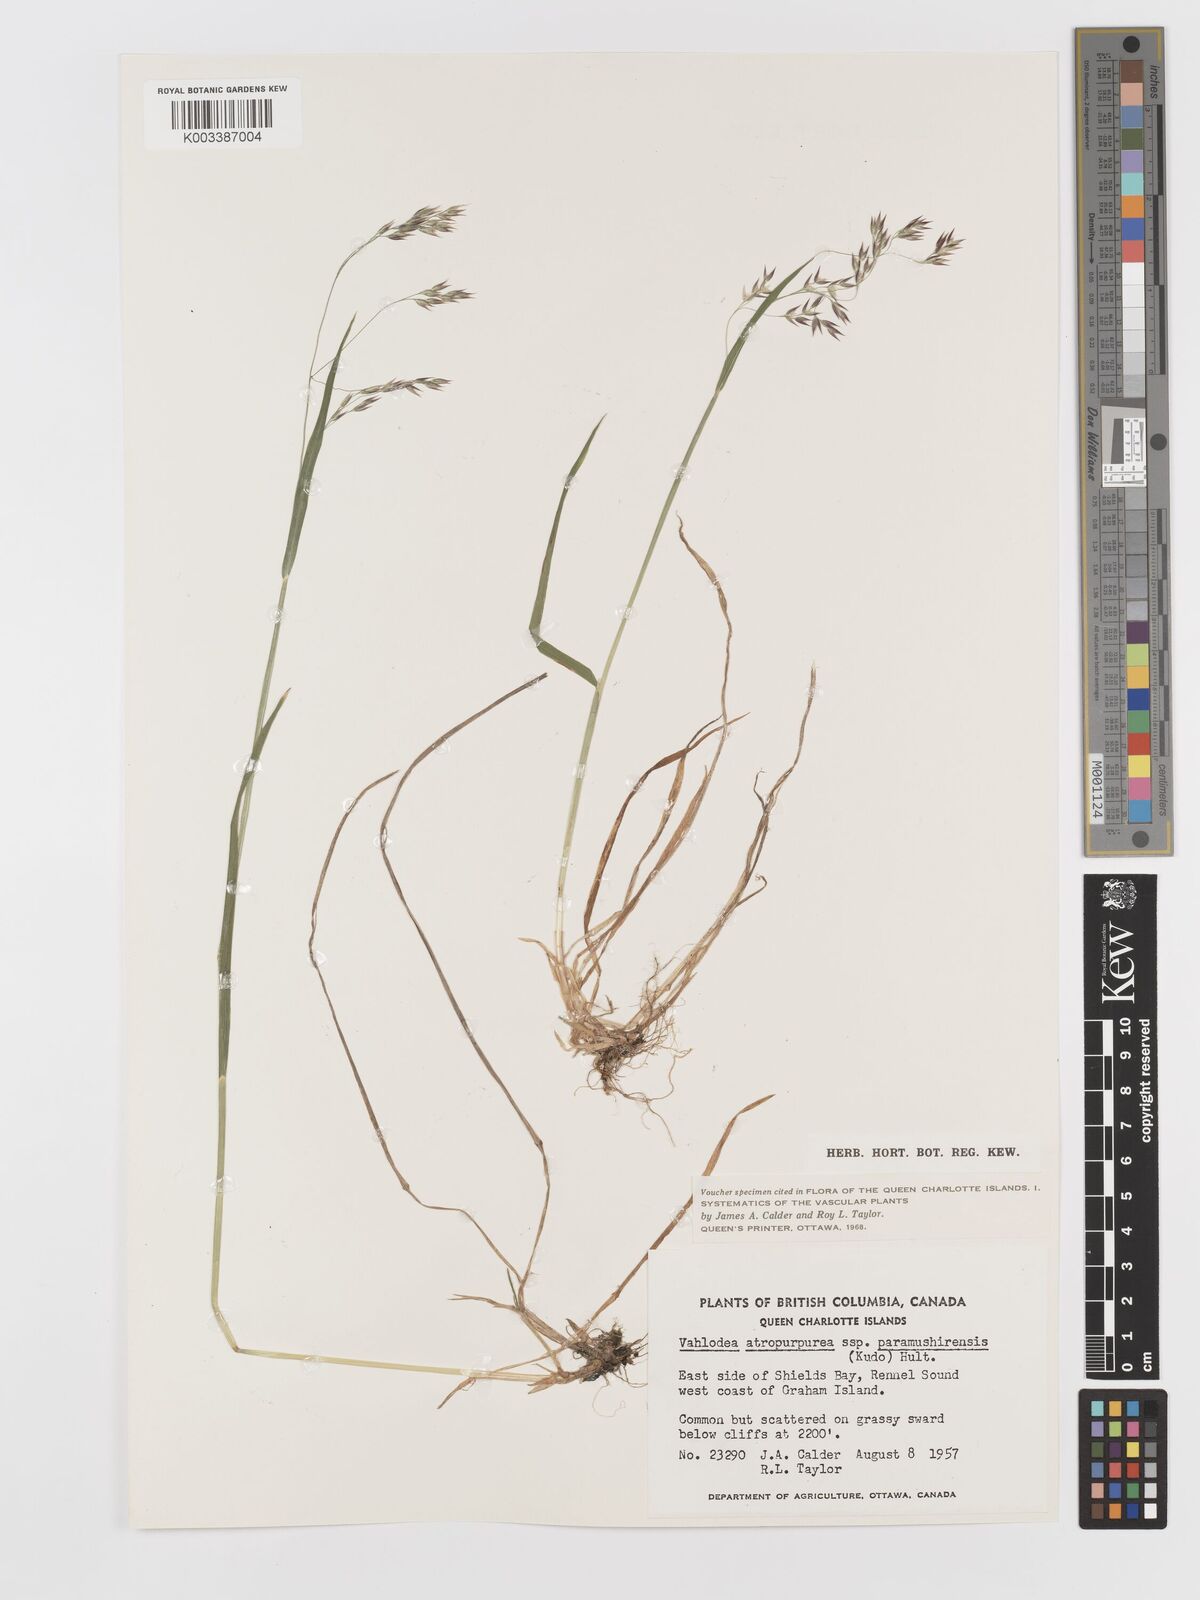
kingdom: Plantae
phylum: Tracheophyta
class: Liliopsida
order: Poales
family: Poaceae
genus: Vahlodea
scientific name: Vahlodea atropurpurea
